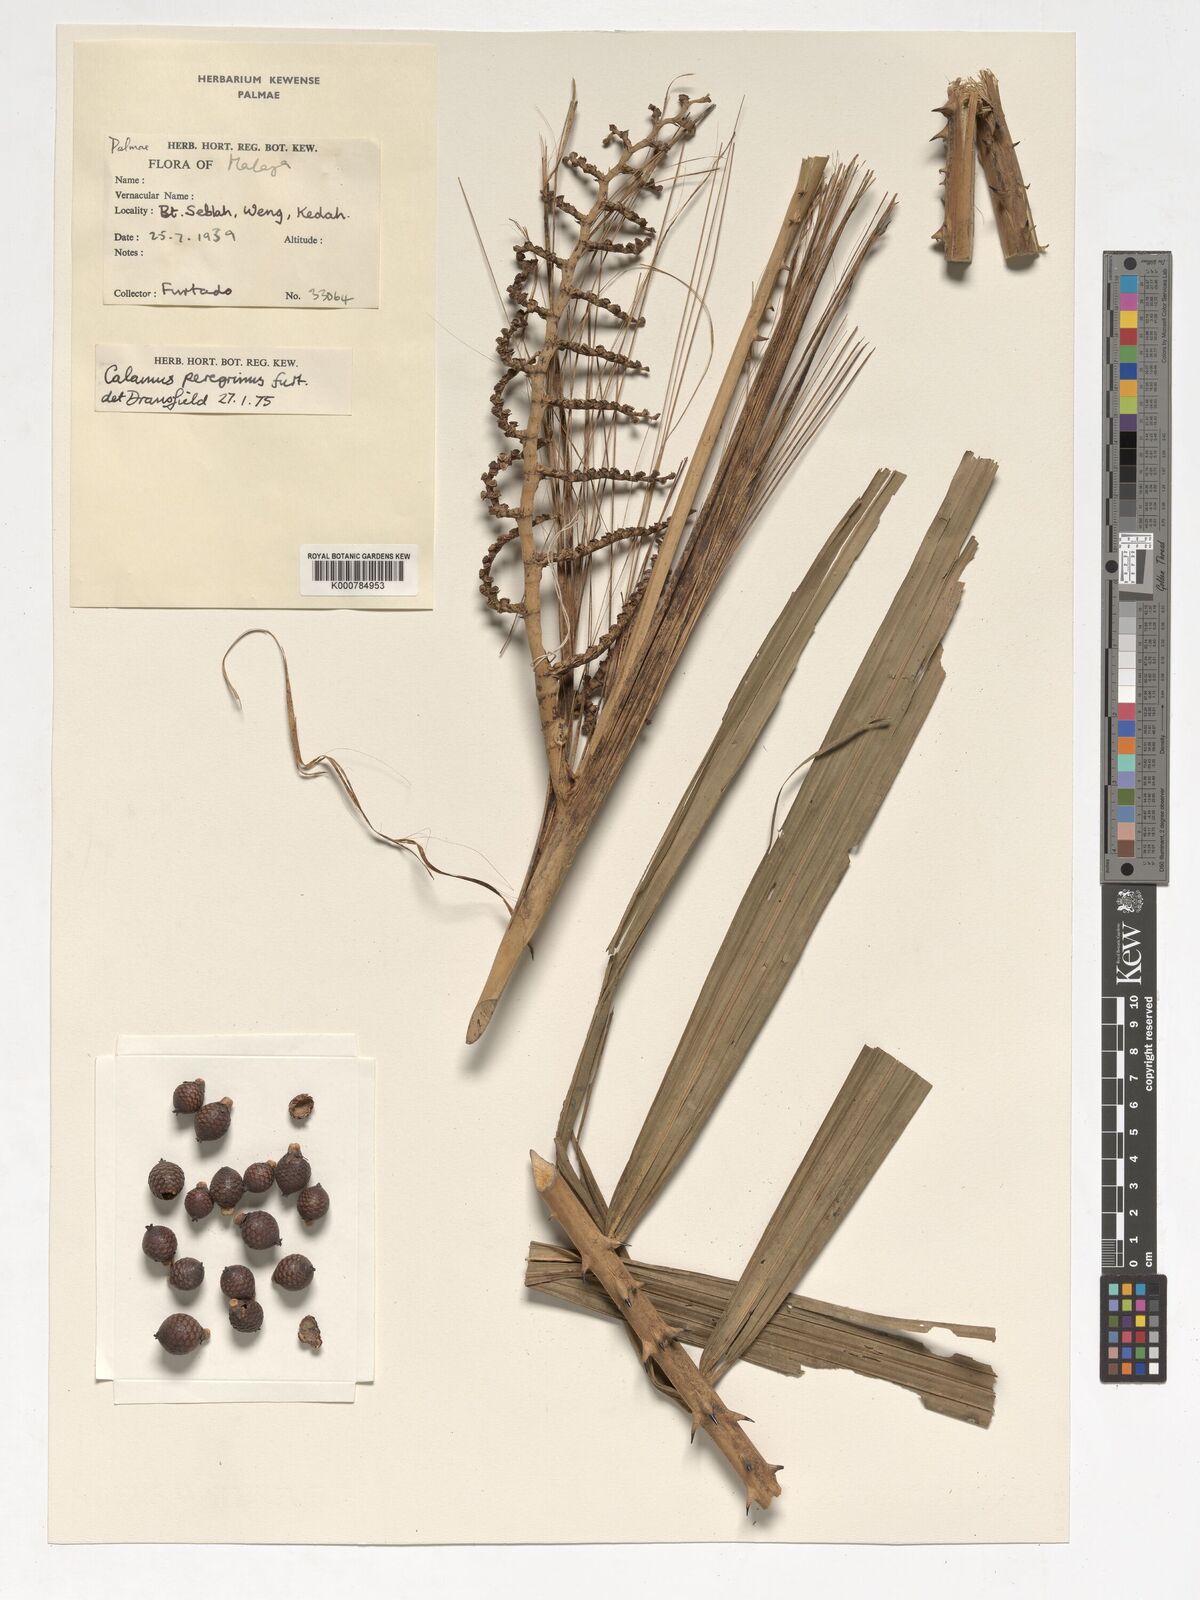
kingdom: Plantae
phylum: Tracheophyta
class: Liliopsida
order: Arecales
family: Arecaceae
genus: Calamus
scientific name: Calamus peregrinus
